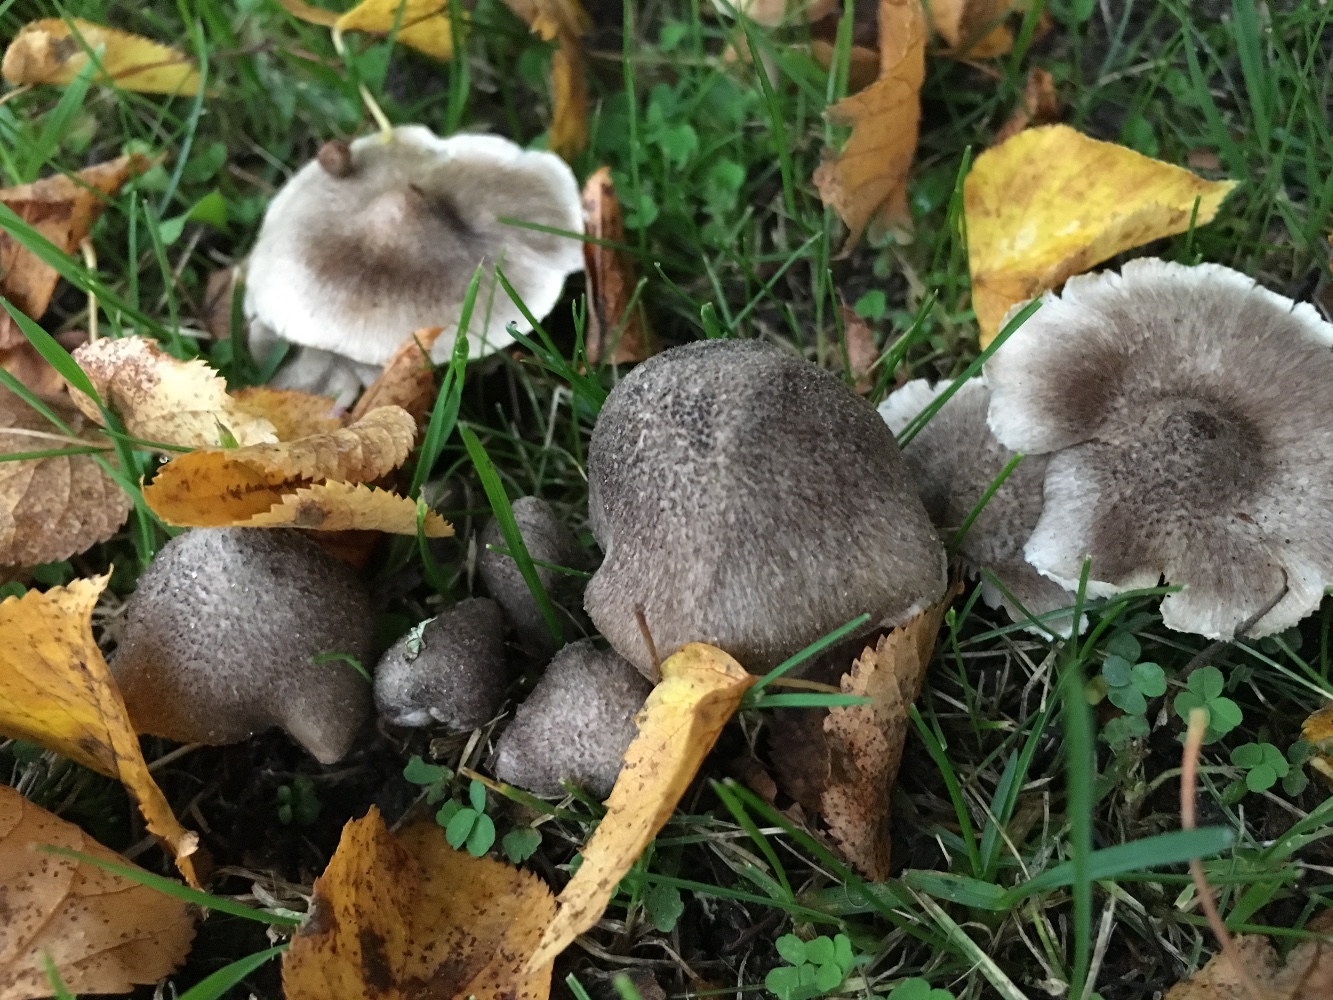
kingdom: Fungi
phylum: Basidiomycota
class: Agaricomycetes
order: Agaricales
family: Tricholomataceae
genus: Tricholoma
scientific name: Tricholoma scalpturatum
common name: gulplettet ridderhat
